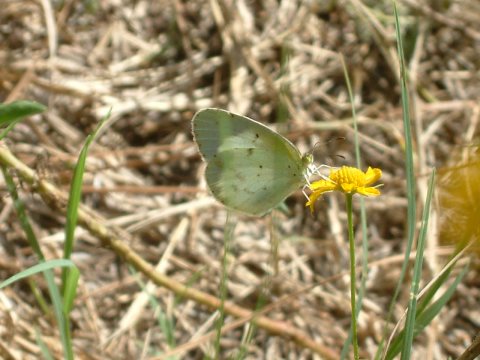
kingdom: Animalia
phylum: Arthropoda
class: Insecta
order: Lepidoptera
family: Pieridae
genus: Pyrisitia
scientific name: Pyrisitia lisa
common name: Little Yellow
